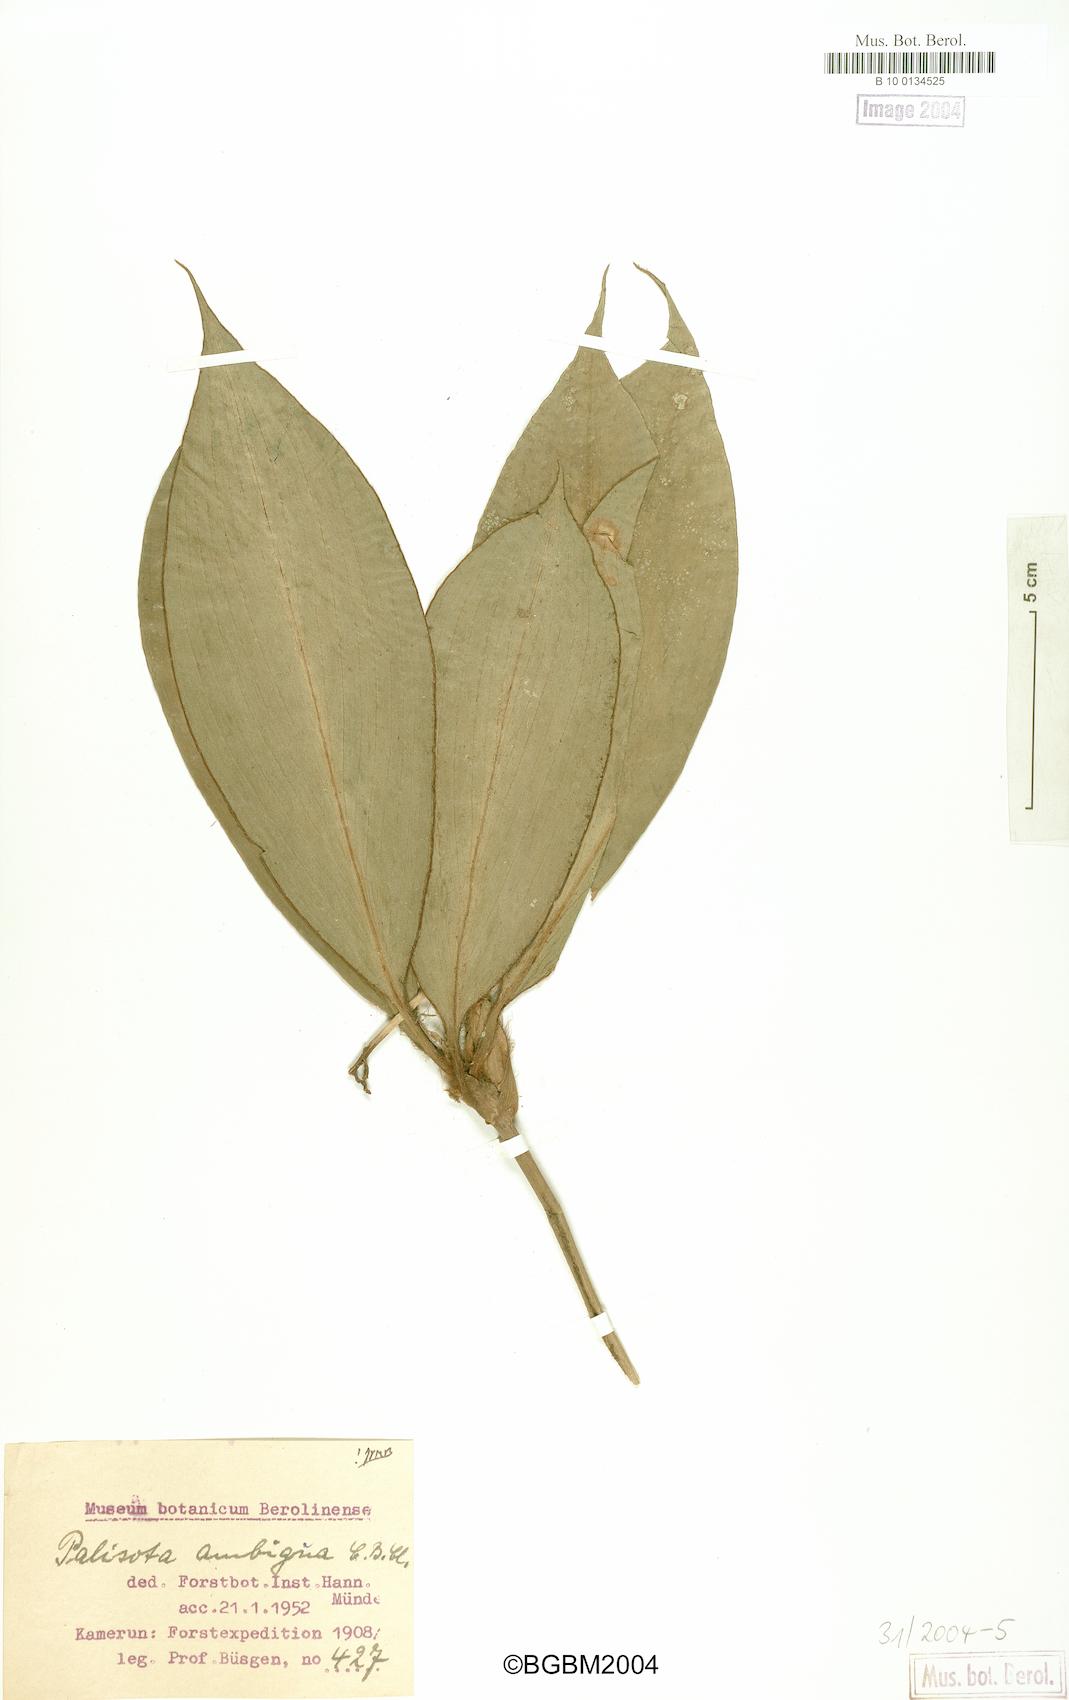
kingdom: Plantae
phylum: Tracheophyta
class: Liliopsida
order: Commelinales
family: Commelinaceae
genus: Palisota
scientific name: Palisota ambigua
